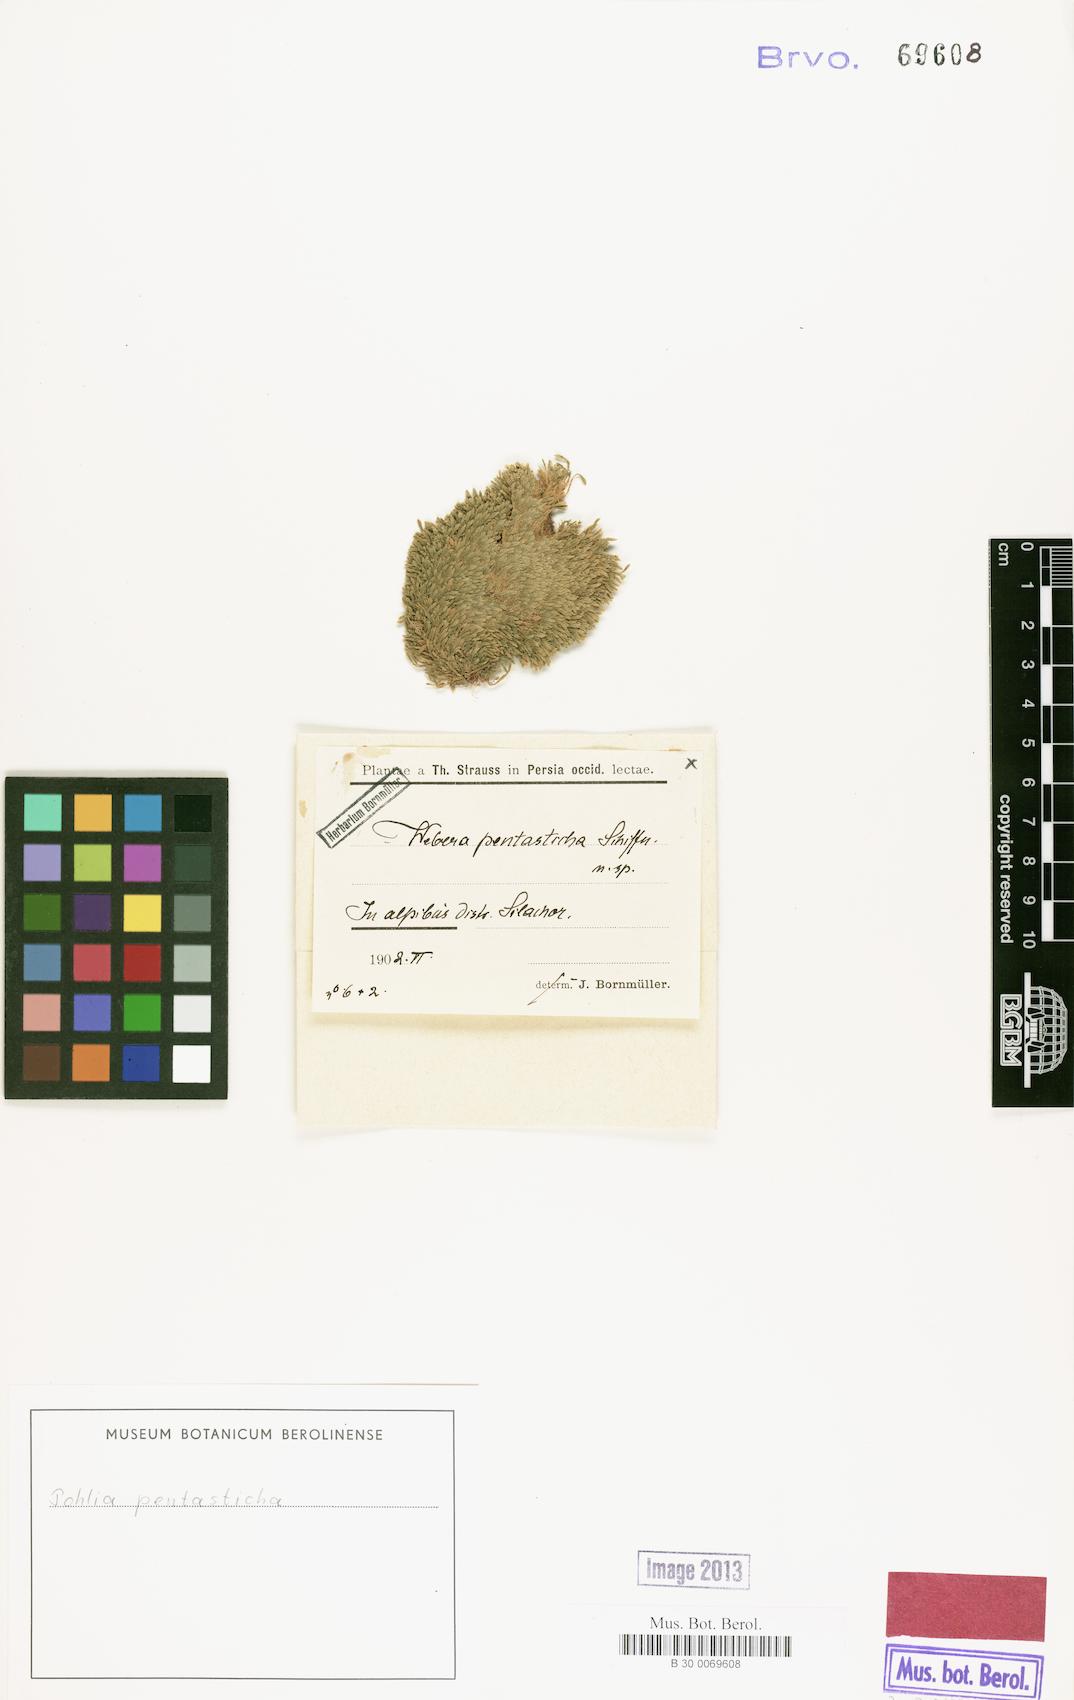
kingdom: Plantae
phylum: Bryophyta
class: Bryopsida
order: Bryales
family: Mniaceae
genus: Pohlia
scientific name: Pohlia pentasticha
